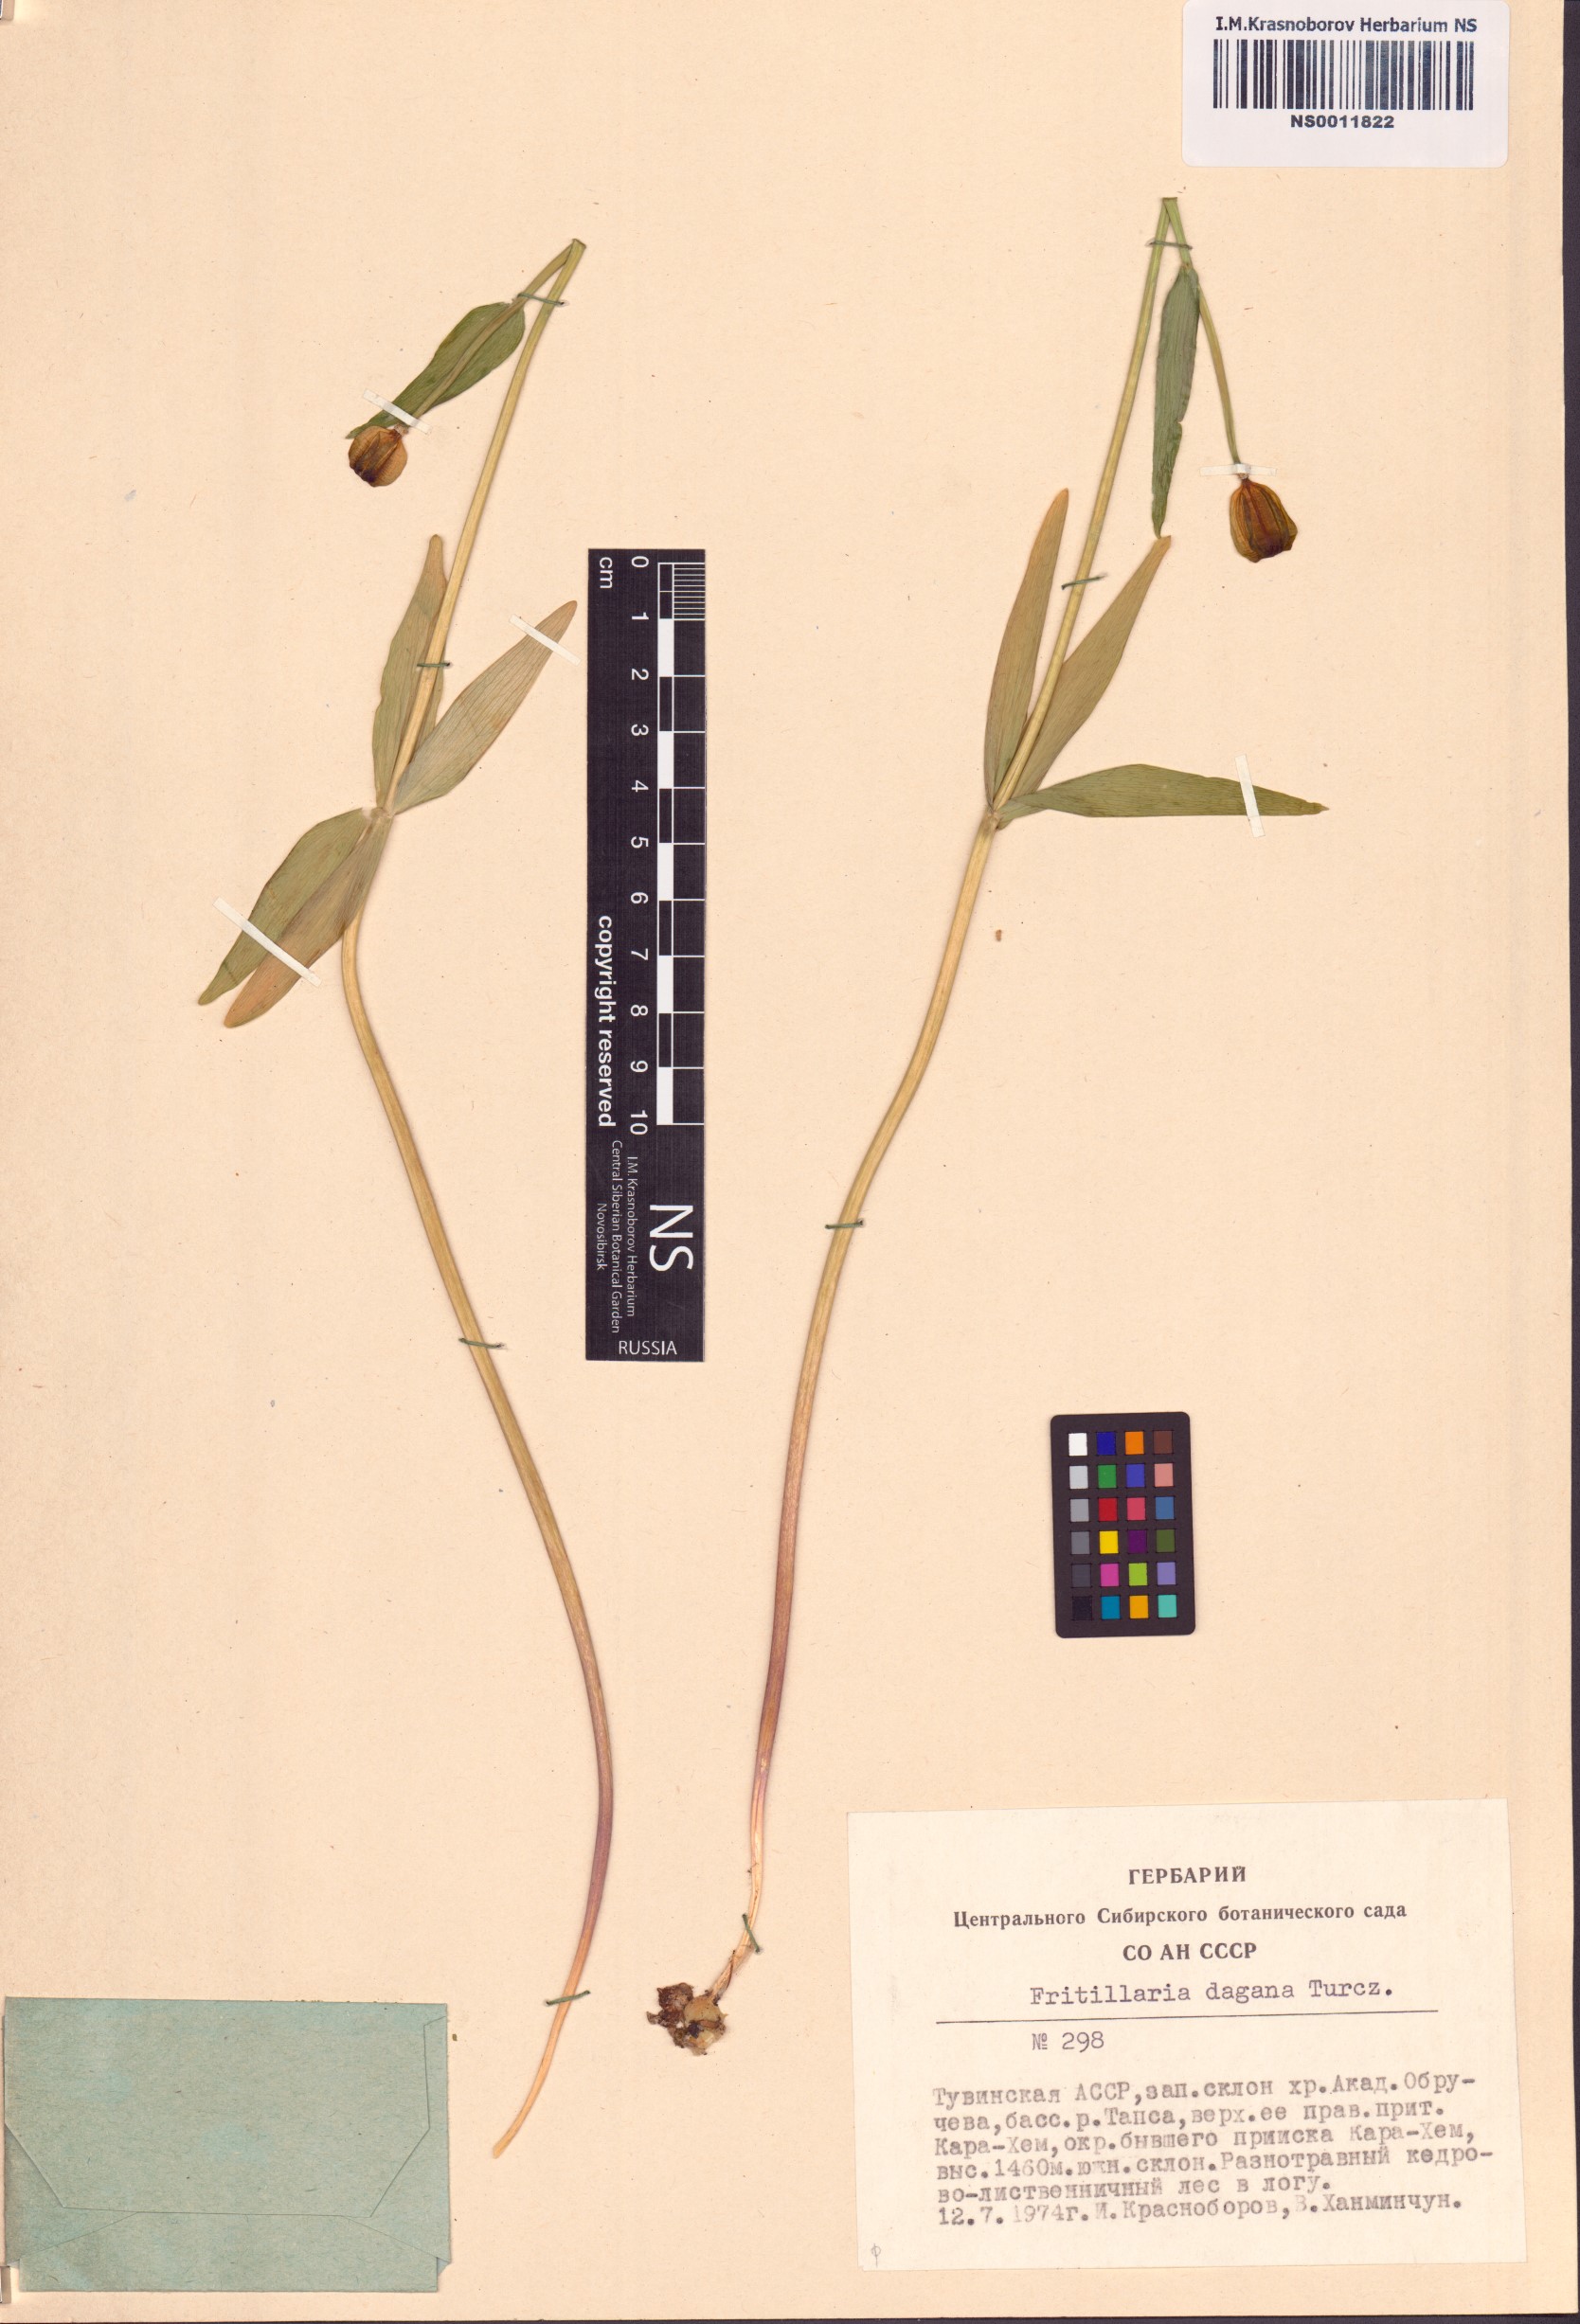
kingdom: Plantae
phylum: Tracheophyta
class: Liliopsida
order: Liliales
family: Liliaceae
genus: Fritillaria
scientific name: Fritillaria dagana
